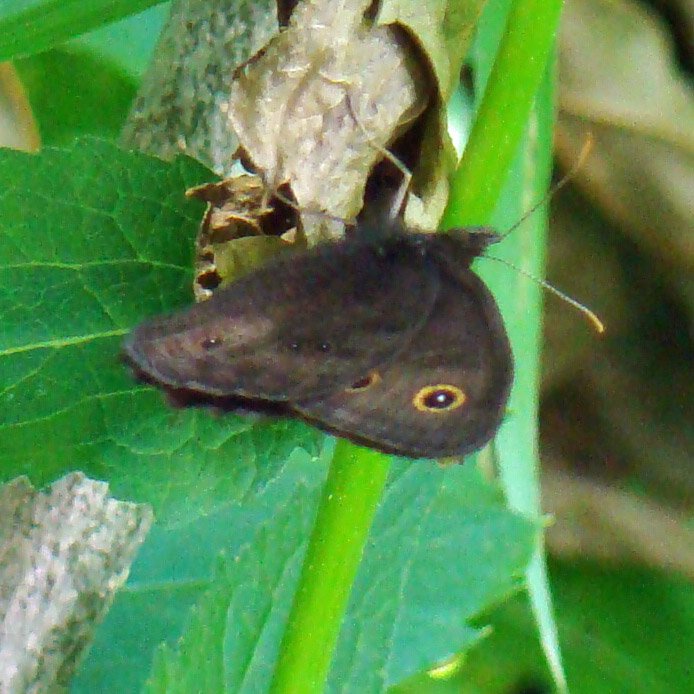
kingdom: Animalia
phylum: Arthropoda
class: Insecta
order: Lepidoptera
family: Nymphalidae
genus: Cercyonis
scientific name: Cercyonis pegala
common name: Common Wood-Nymph
